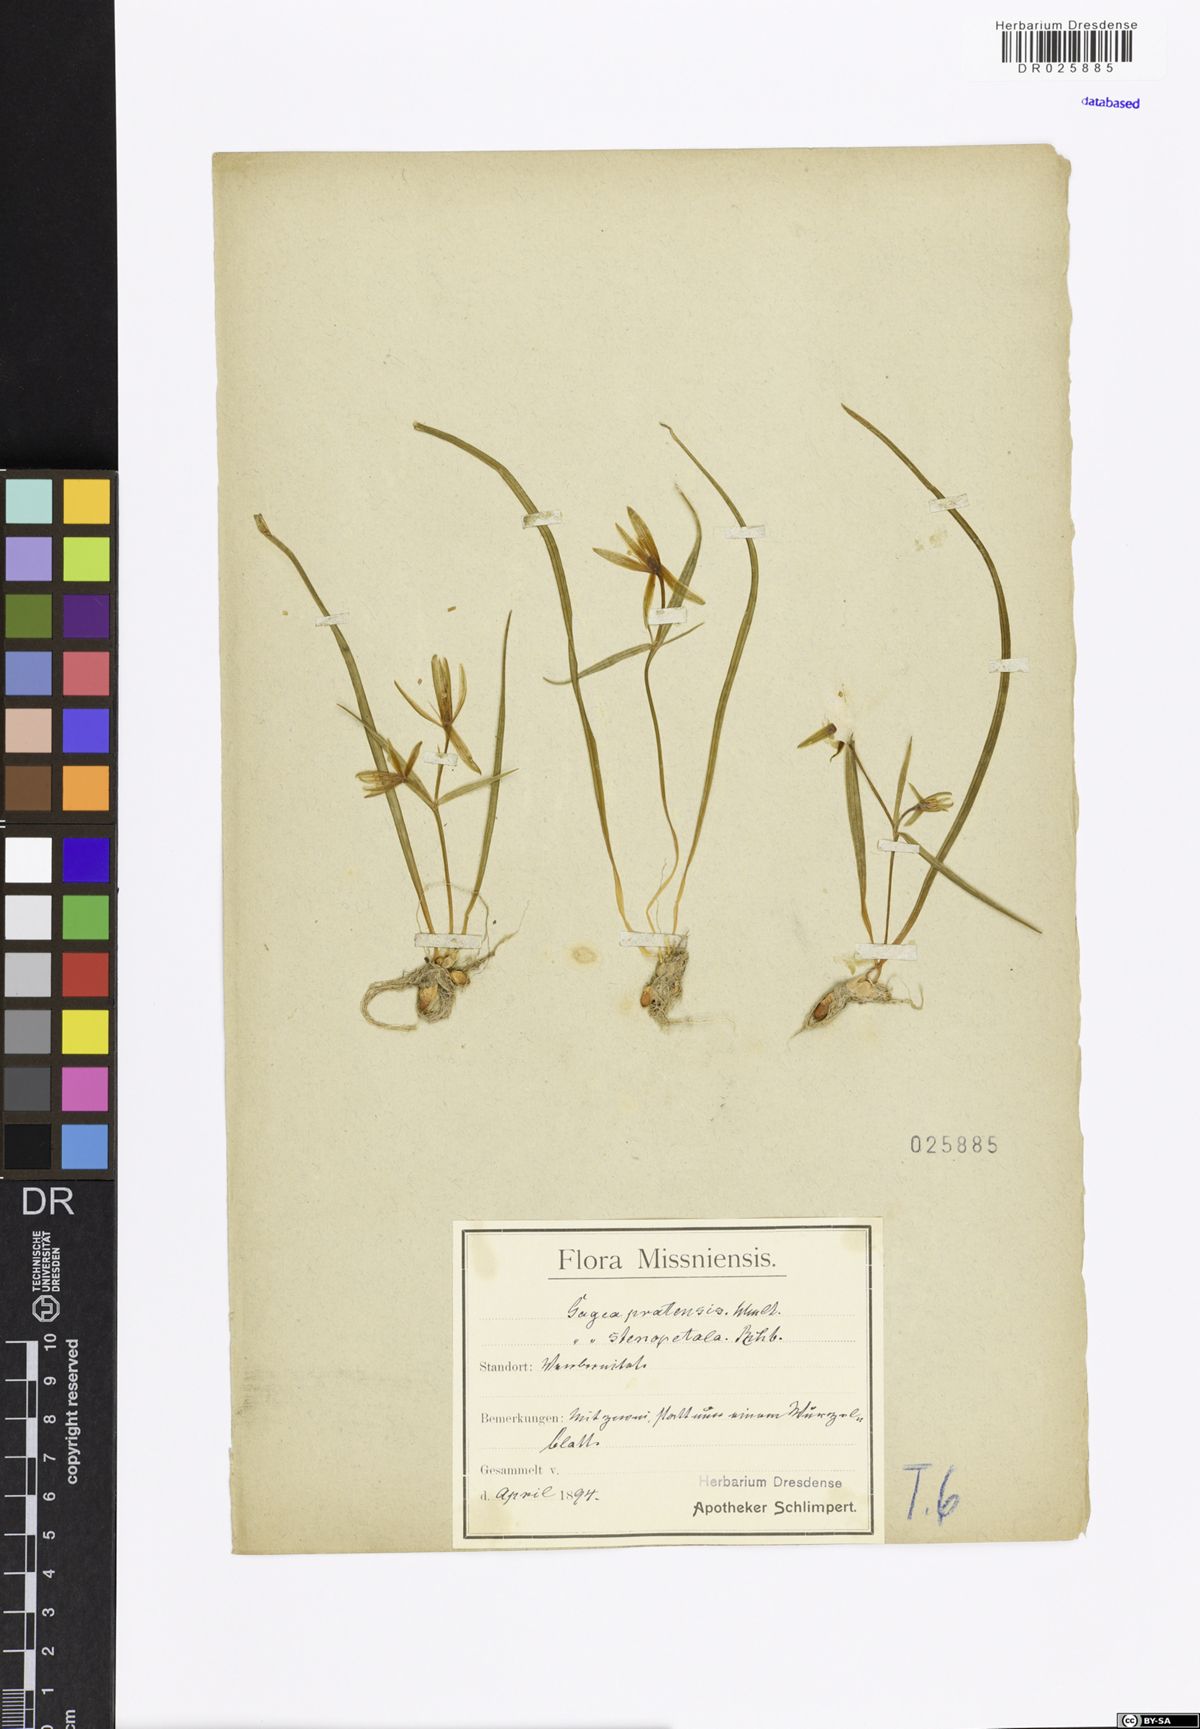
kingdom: Plantae
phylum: Tracheophyta
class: Liliopsida
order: Liliales
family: Liliaceae
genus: Gagea
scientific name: Gagea pratensis
